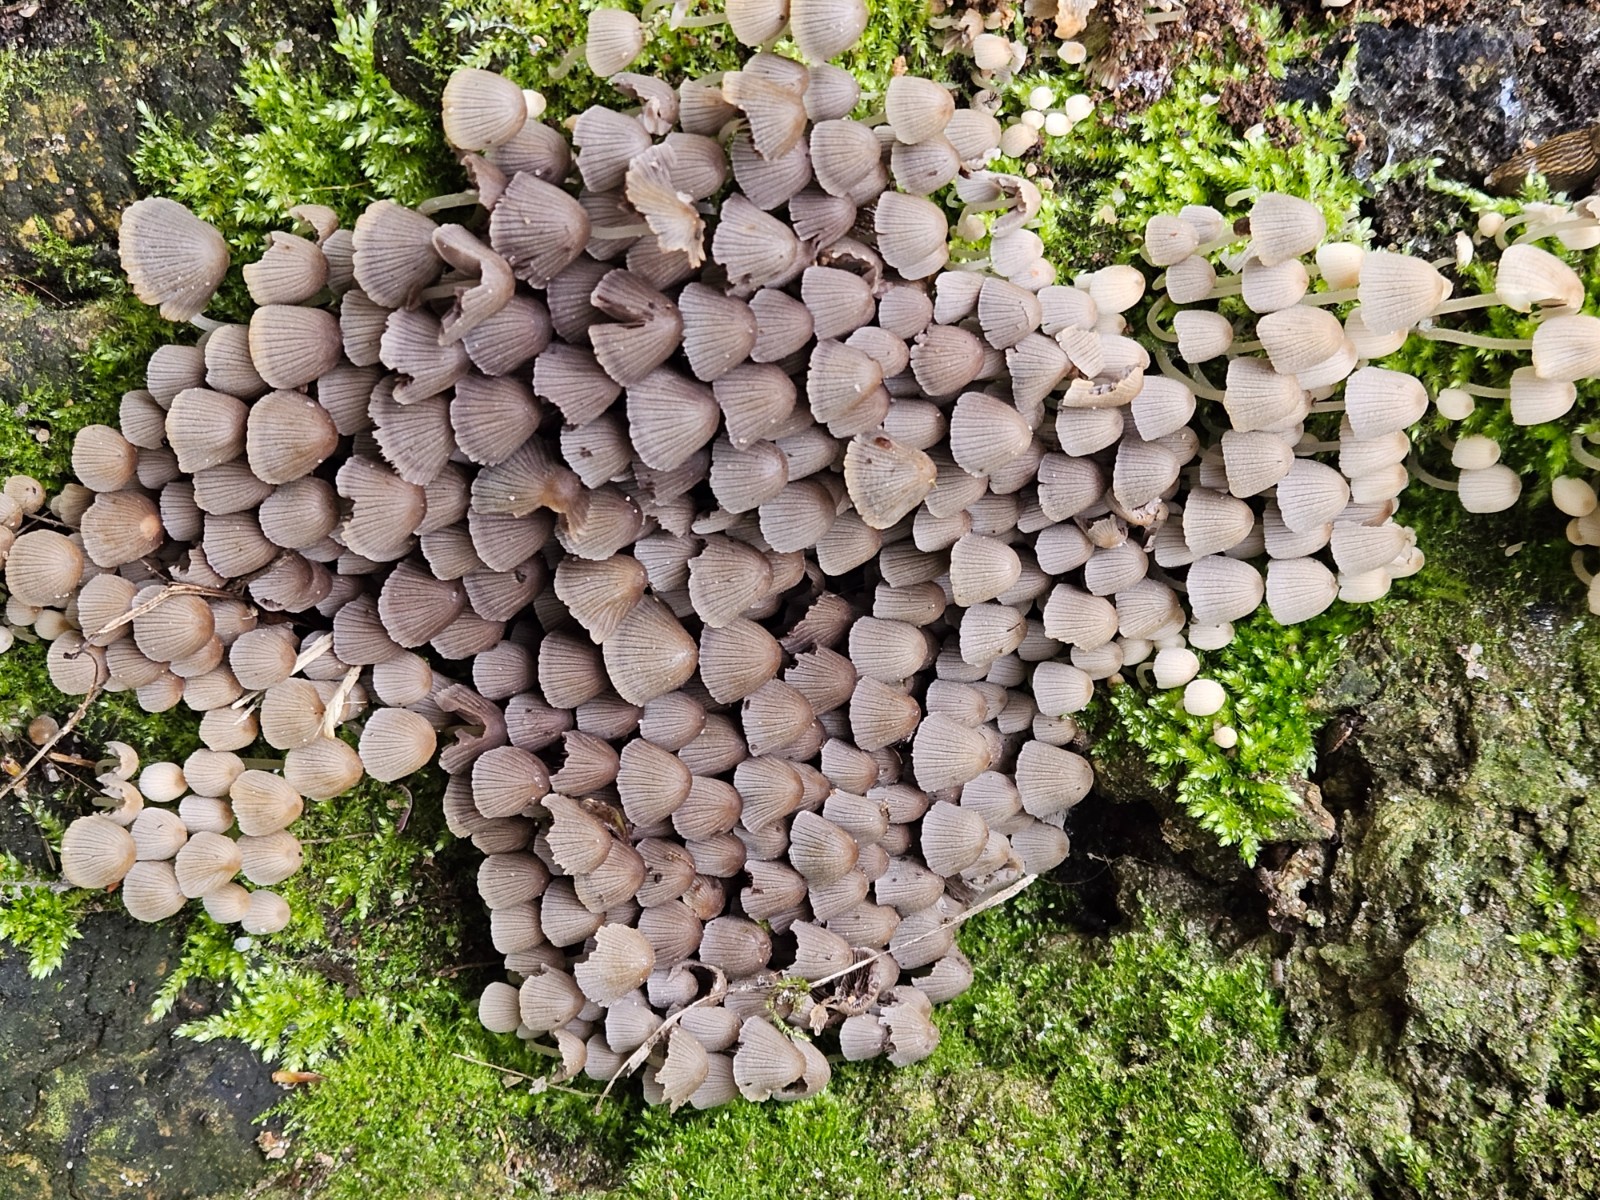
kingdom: Fungi
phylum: Basidiomycota
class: Agaricomycetes
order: Agaricales
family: Psathyrellaceae
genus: Coprinellus
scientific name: Coprinellus disseminatus
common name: bredsået blækhat
